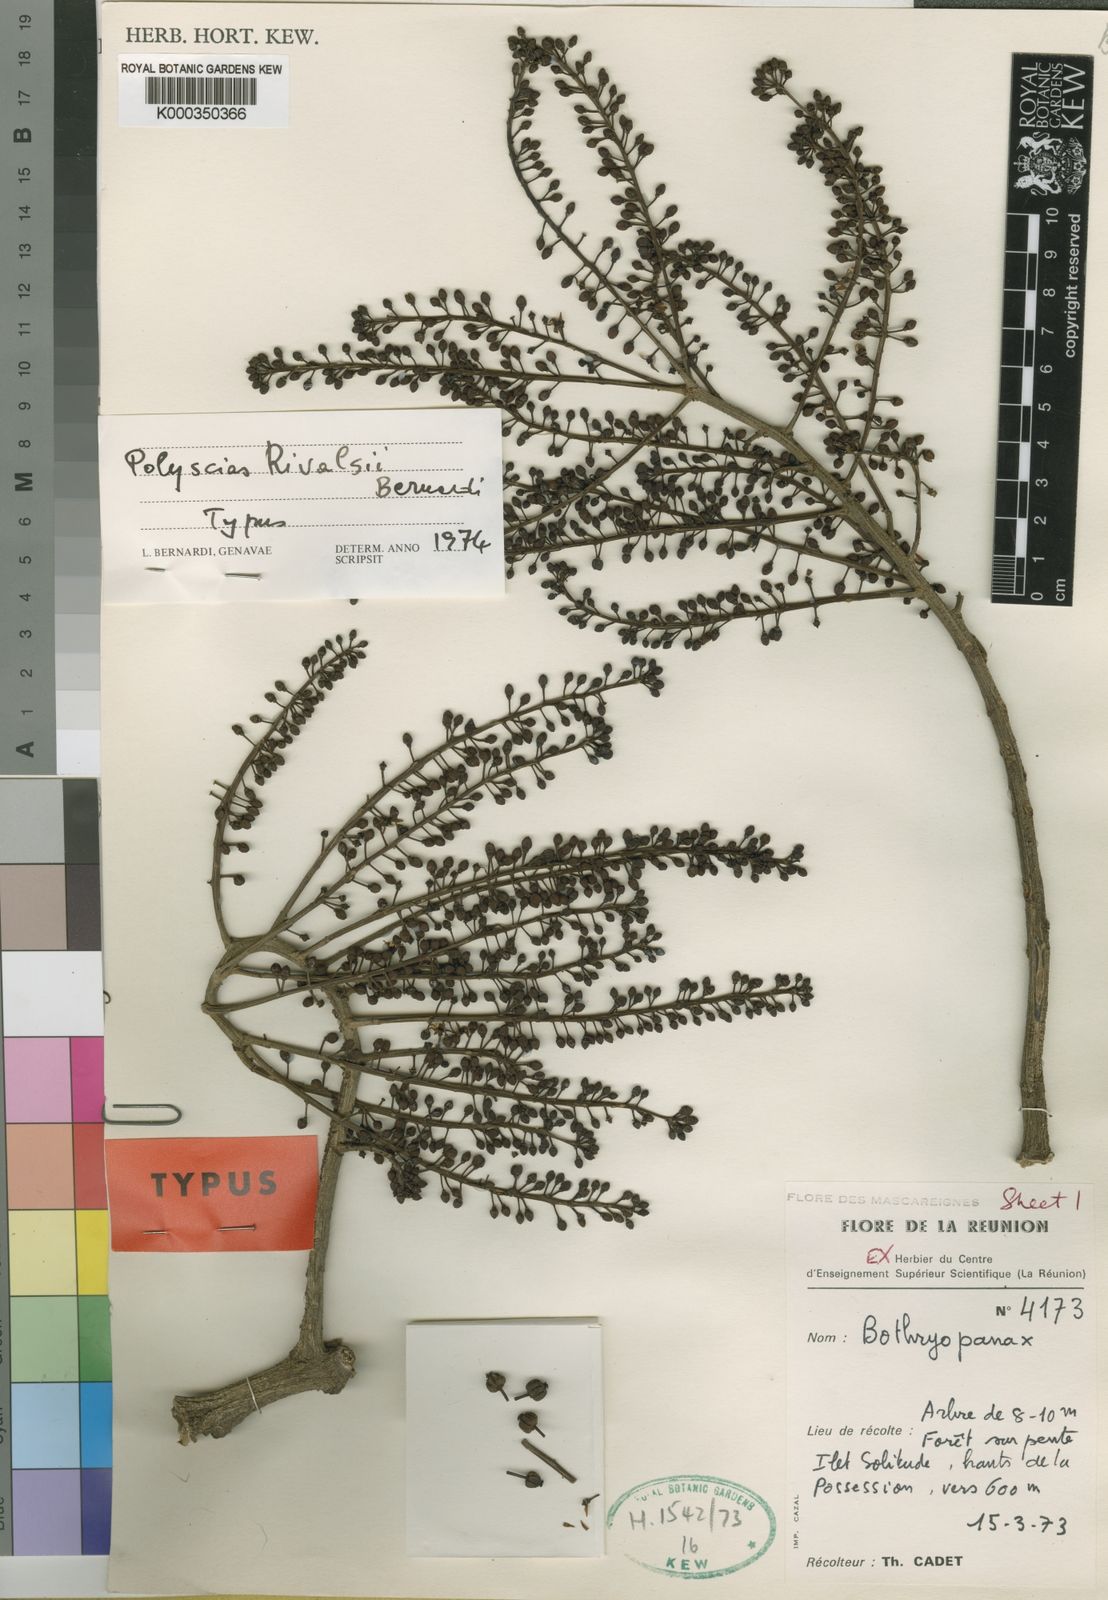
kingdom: Plantae
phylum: Tracheophyta
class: Magnoliopsida
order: Apiales
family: Araliaceae
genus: Polyscias
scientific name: Polyscias rivalsii
